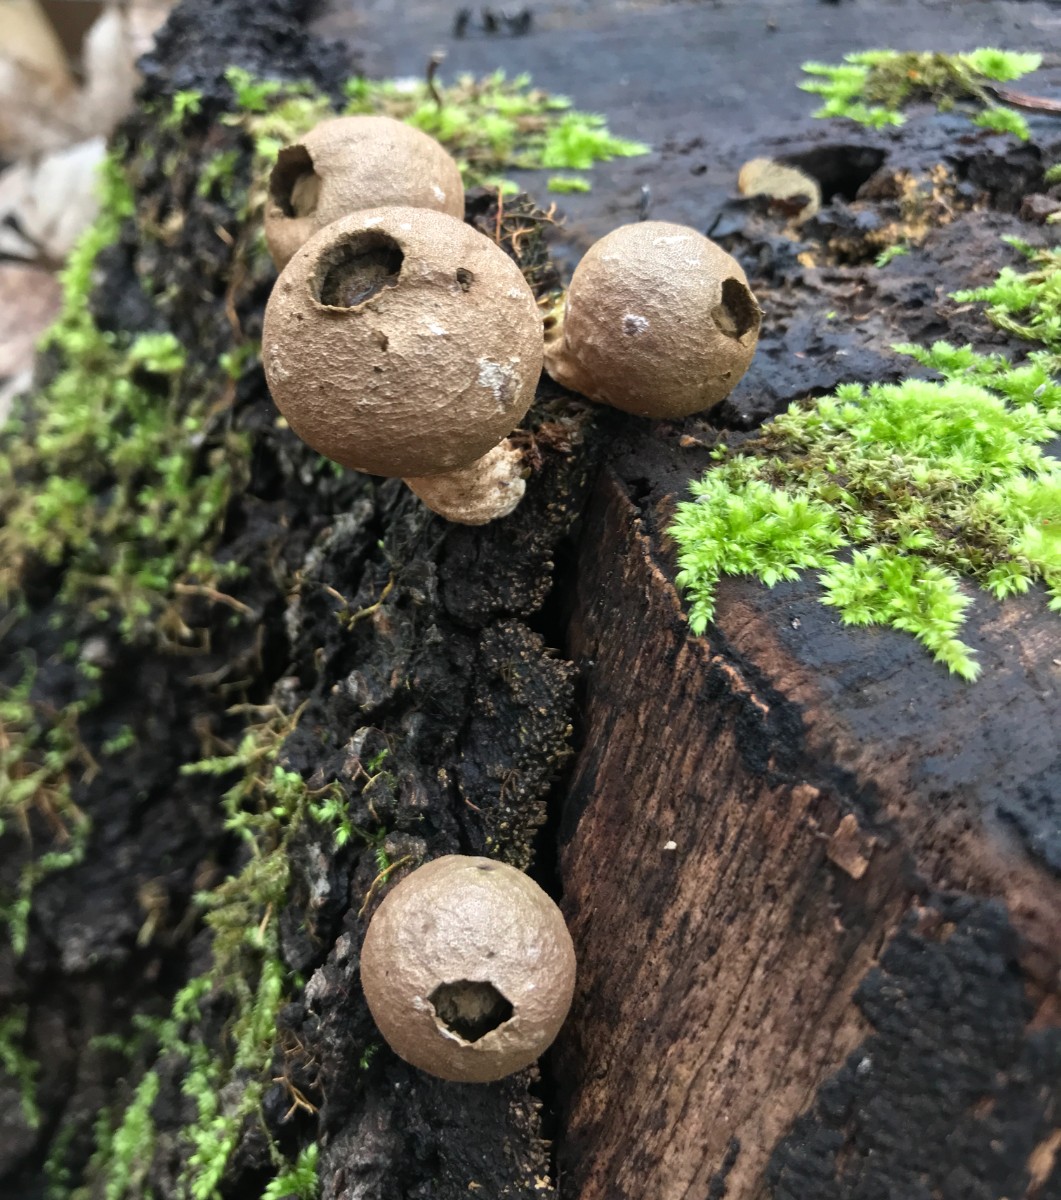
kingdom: Fungi
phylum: Basidiomycota
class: Agaricomycetes
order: Agaricales
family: Lycoperdaceae
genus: Apioperdon
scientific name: Apioperdon pyriforme
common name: pære-støvbold
